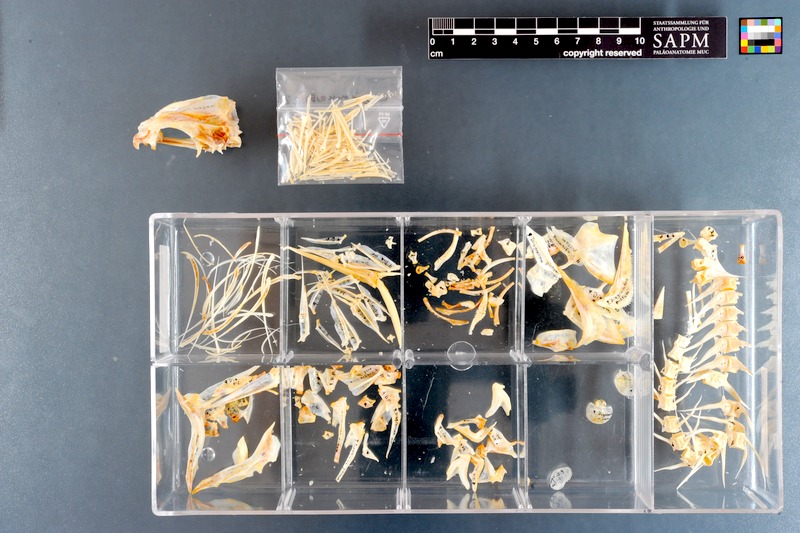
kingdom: Animalia
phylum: Chordata
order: Perciformes
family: Haemulidae
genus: Diagramma
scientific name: Diagramma pictum
